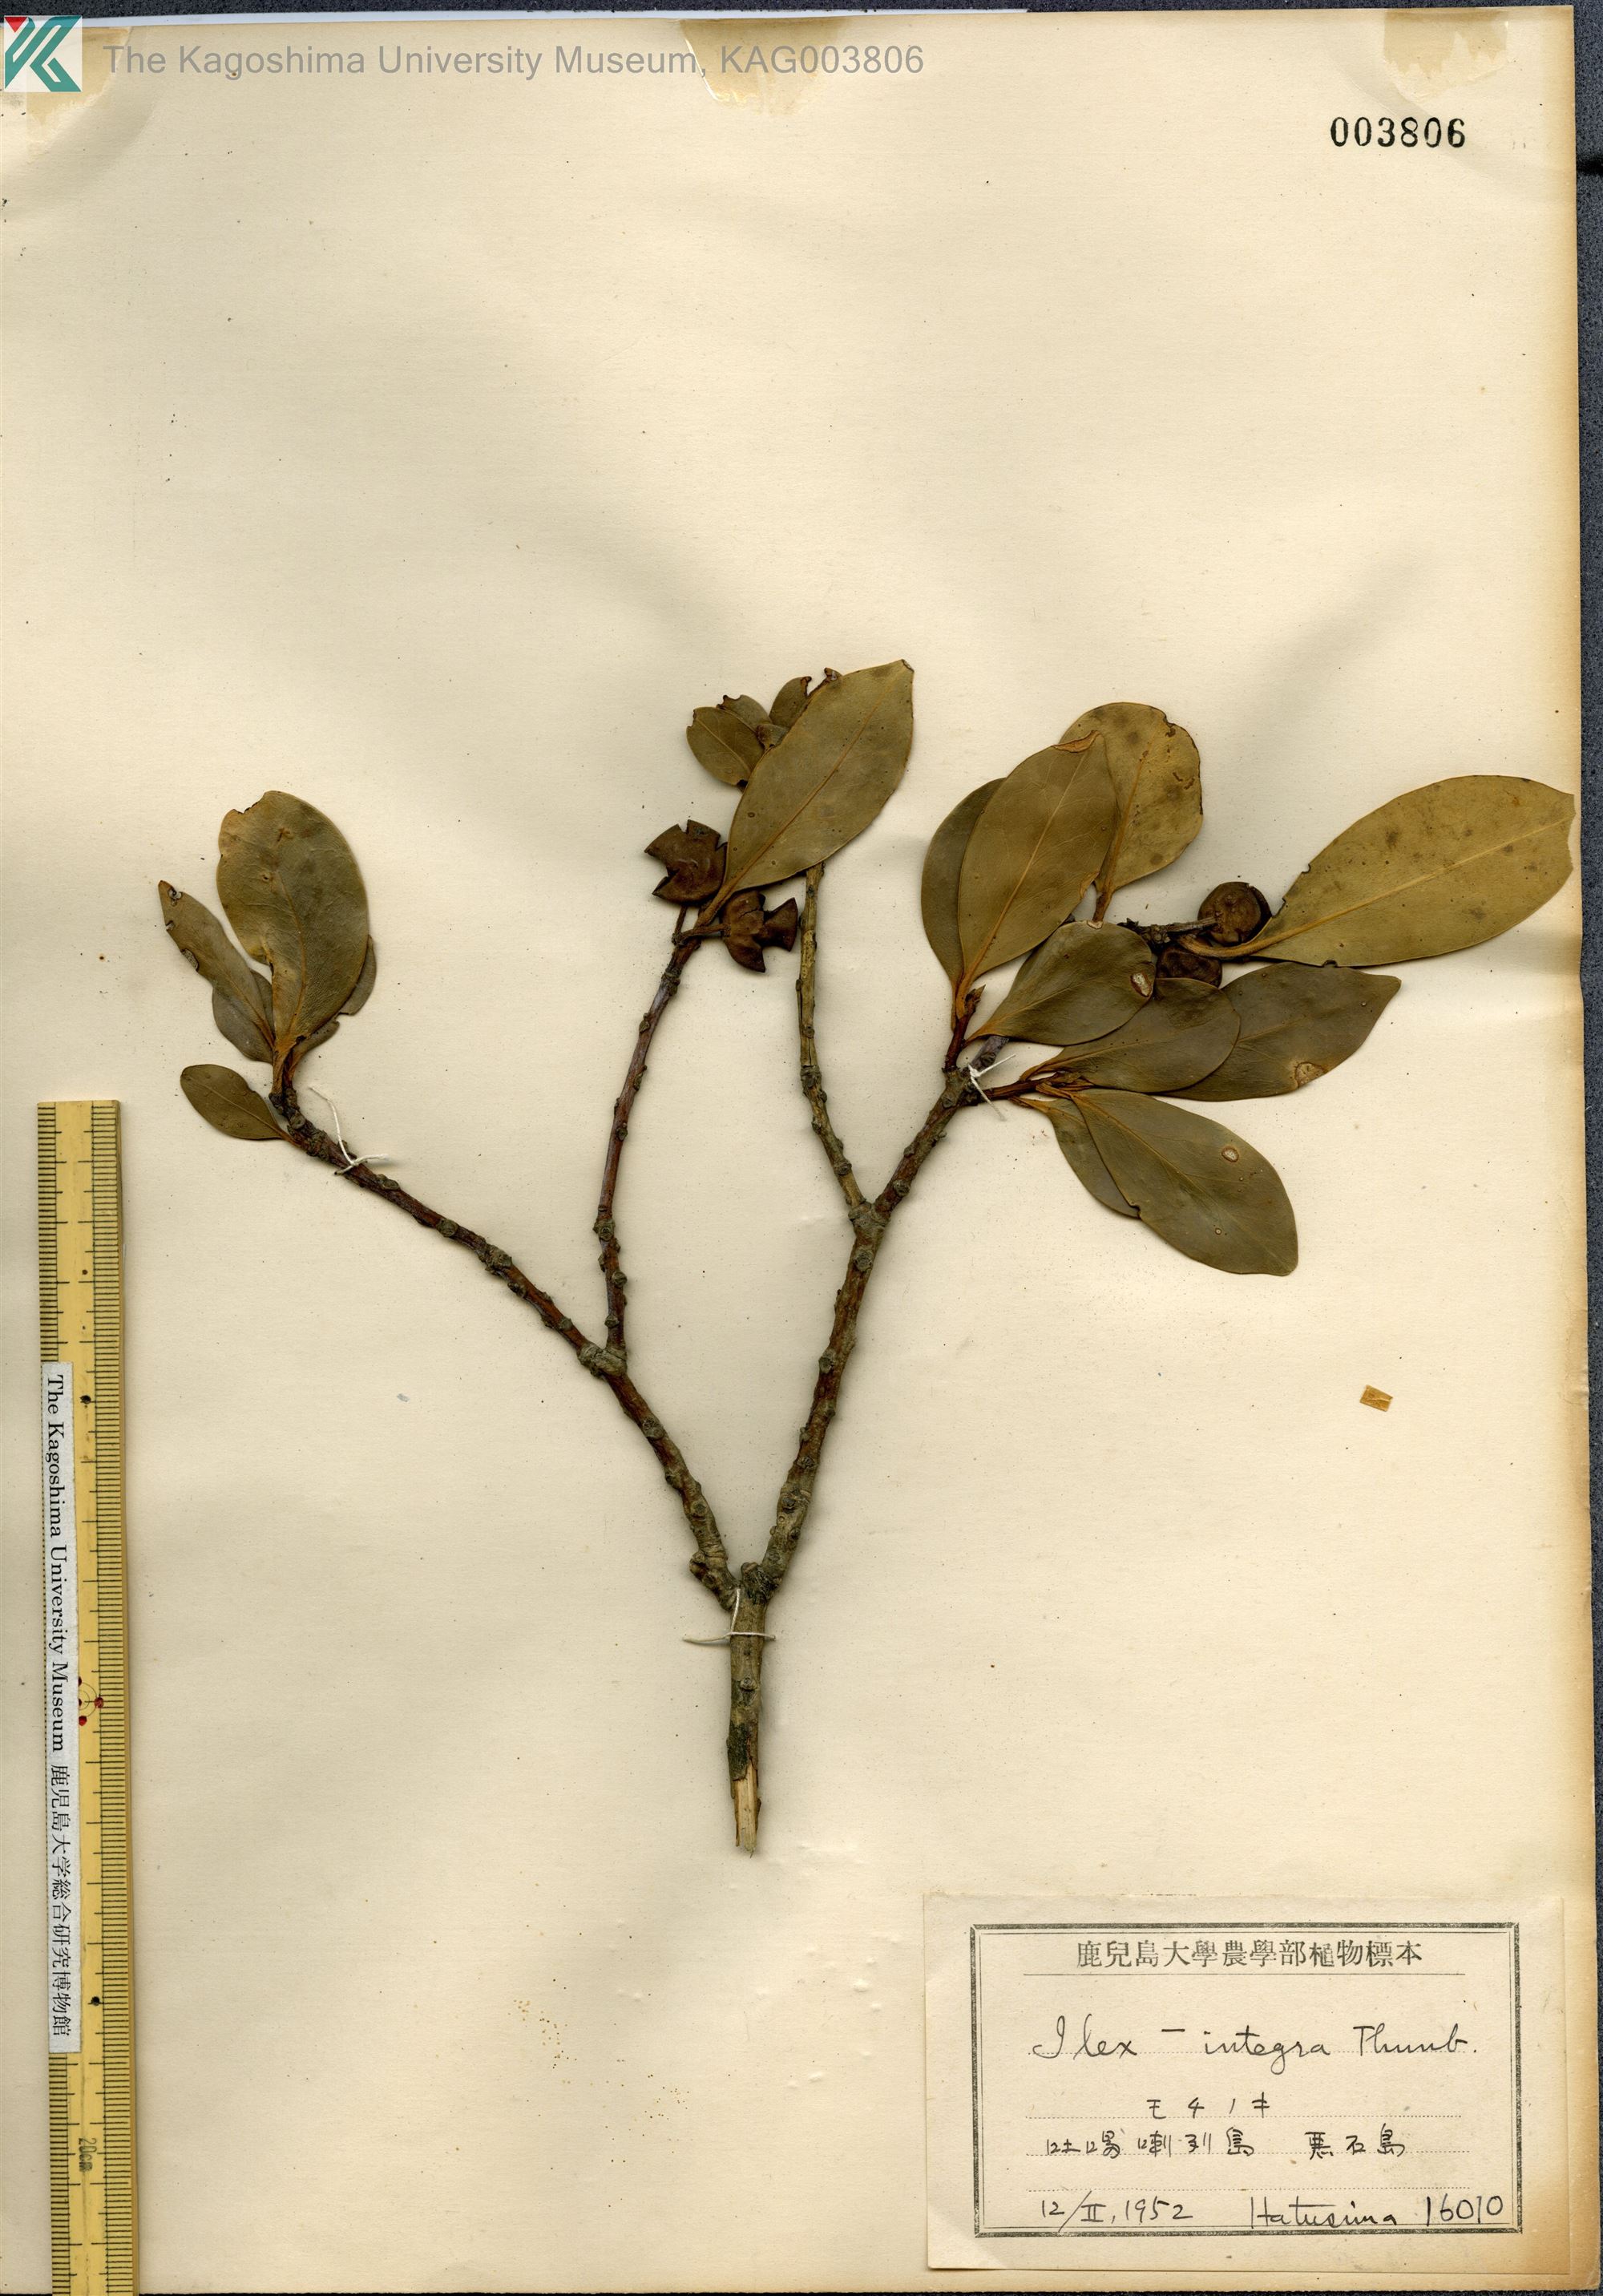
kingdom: Plantae
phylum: Tracheophyta
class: Magnoliopsida
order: Aquifoliales
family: Aquifoliaceae
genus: Ilex
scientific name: Ilex integra
